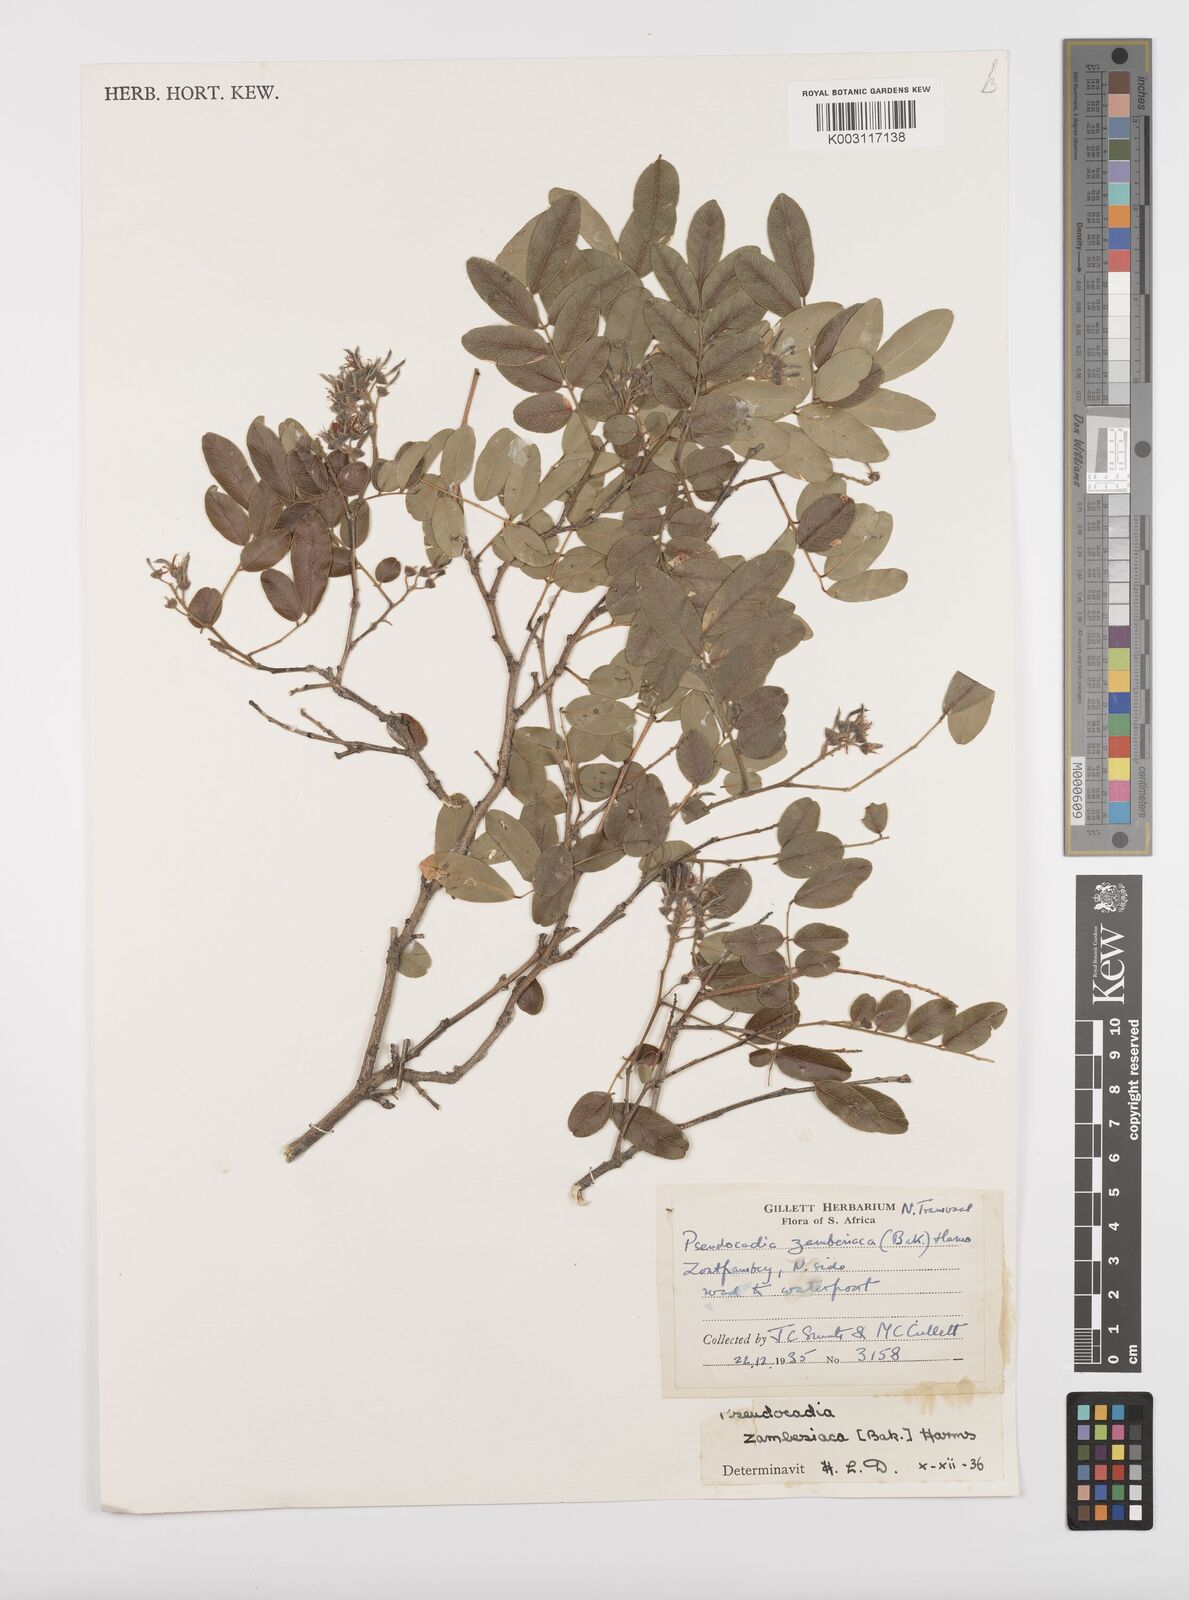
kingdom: Plantae
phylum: Tracheophyta
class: Magnoliopsida
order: Fabales
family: Fabaceae
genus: Xanthocercis
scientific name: Xanthocercis zambesiaca
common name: Nyala-tree
